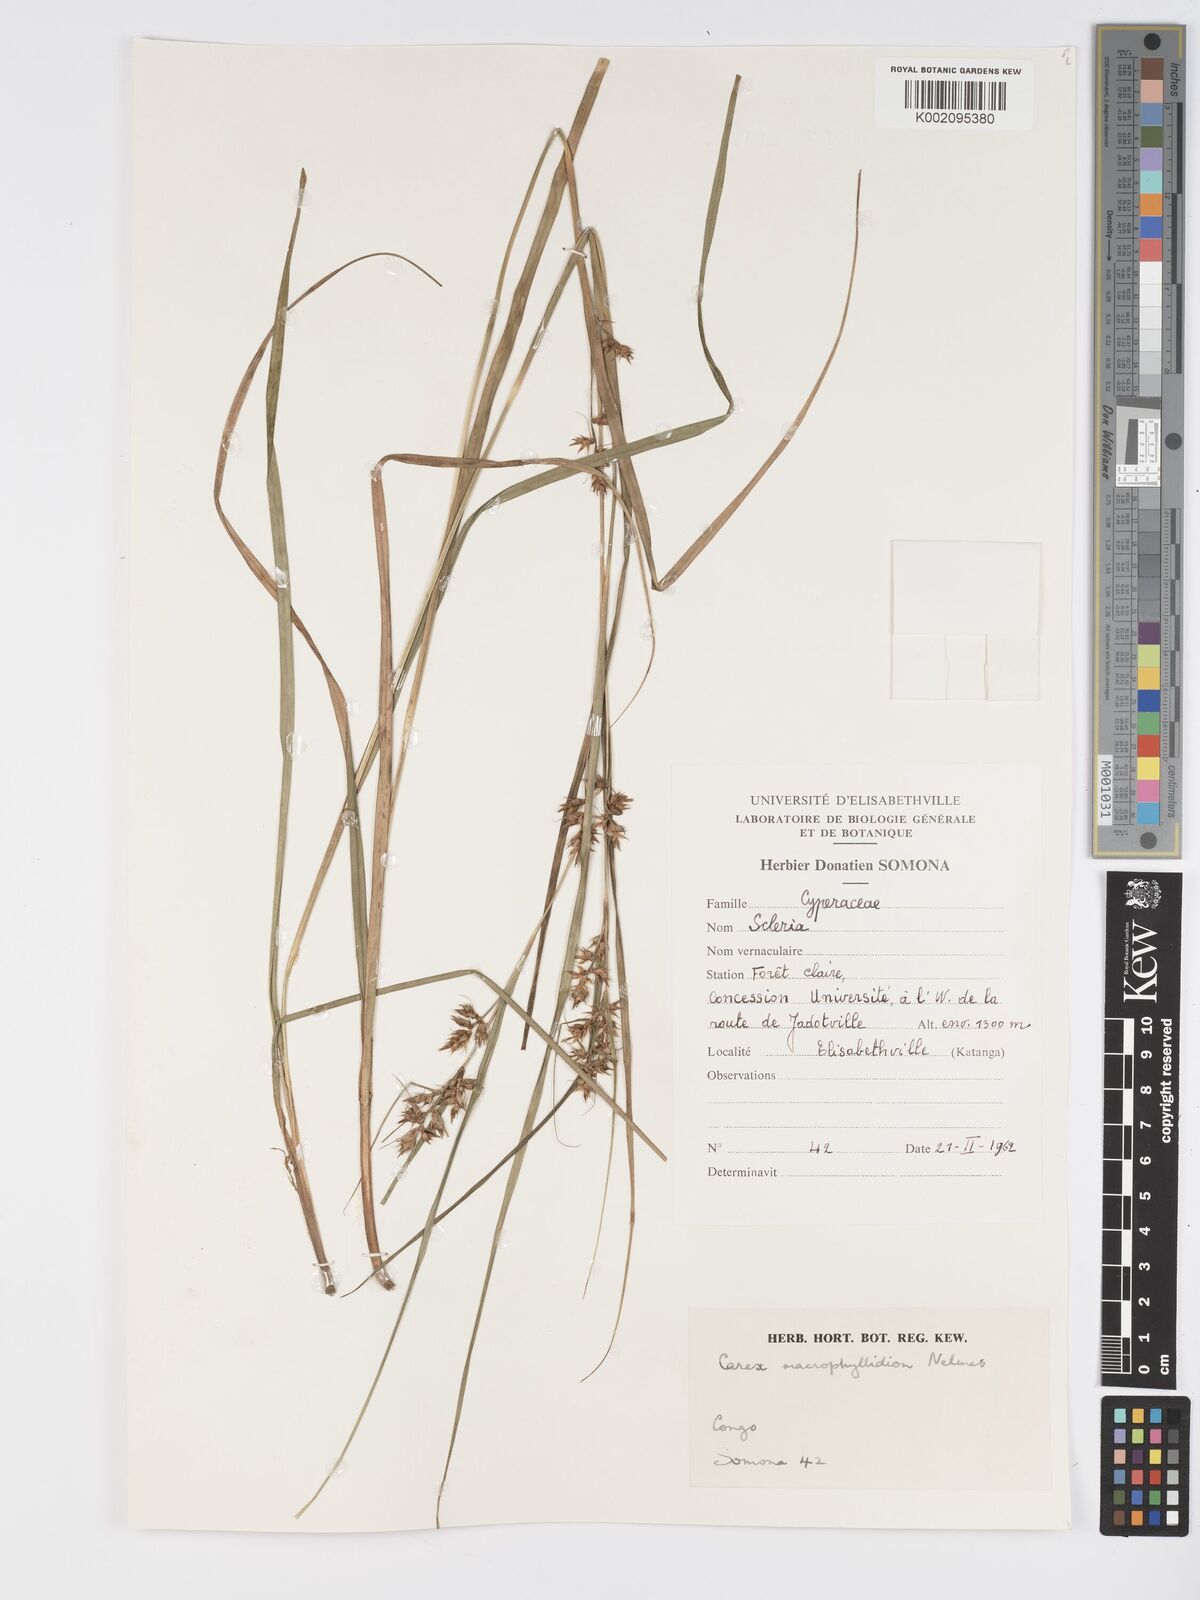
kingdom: Plantae
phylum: Tracheophyta
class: Liliopsida
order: Poales
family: Cyperaceae
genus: Carex
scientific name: Carex macrophyllidion
